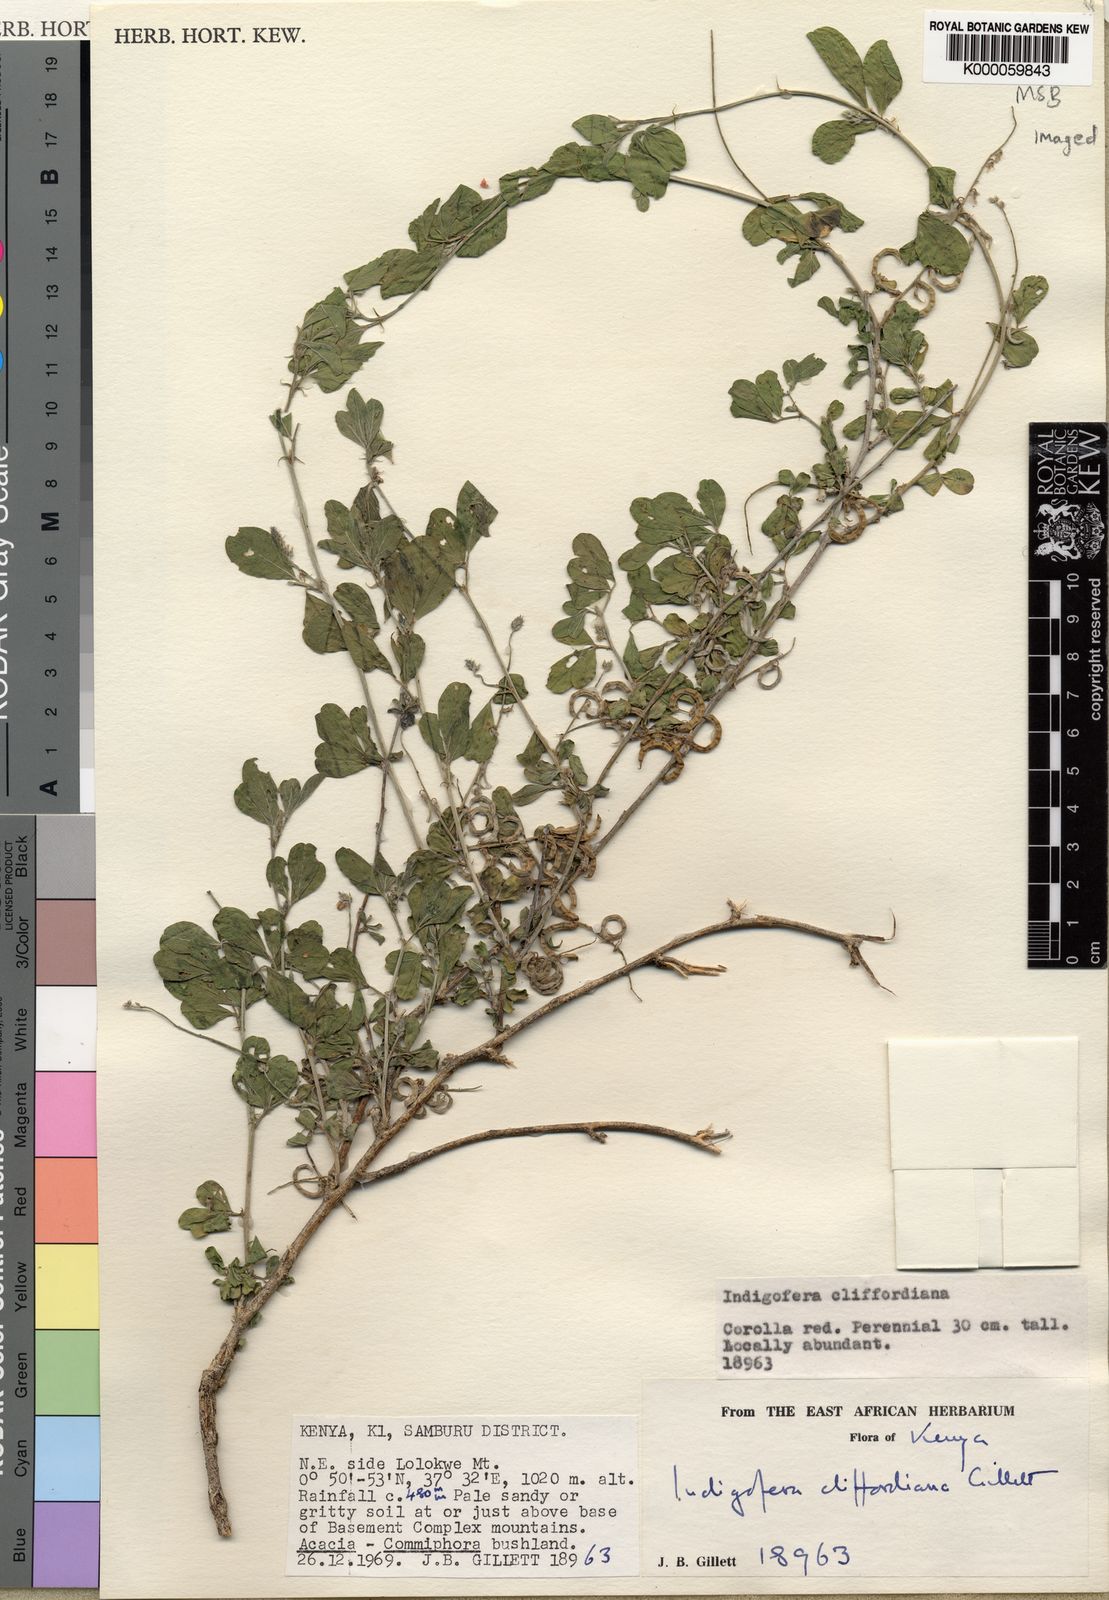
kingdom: Plantae
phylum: Tracheophyta
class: Magnoliopsida
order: Fabales
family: Fabaceae
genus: Indigofera
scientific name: Indigofera cliffordiana
